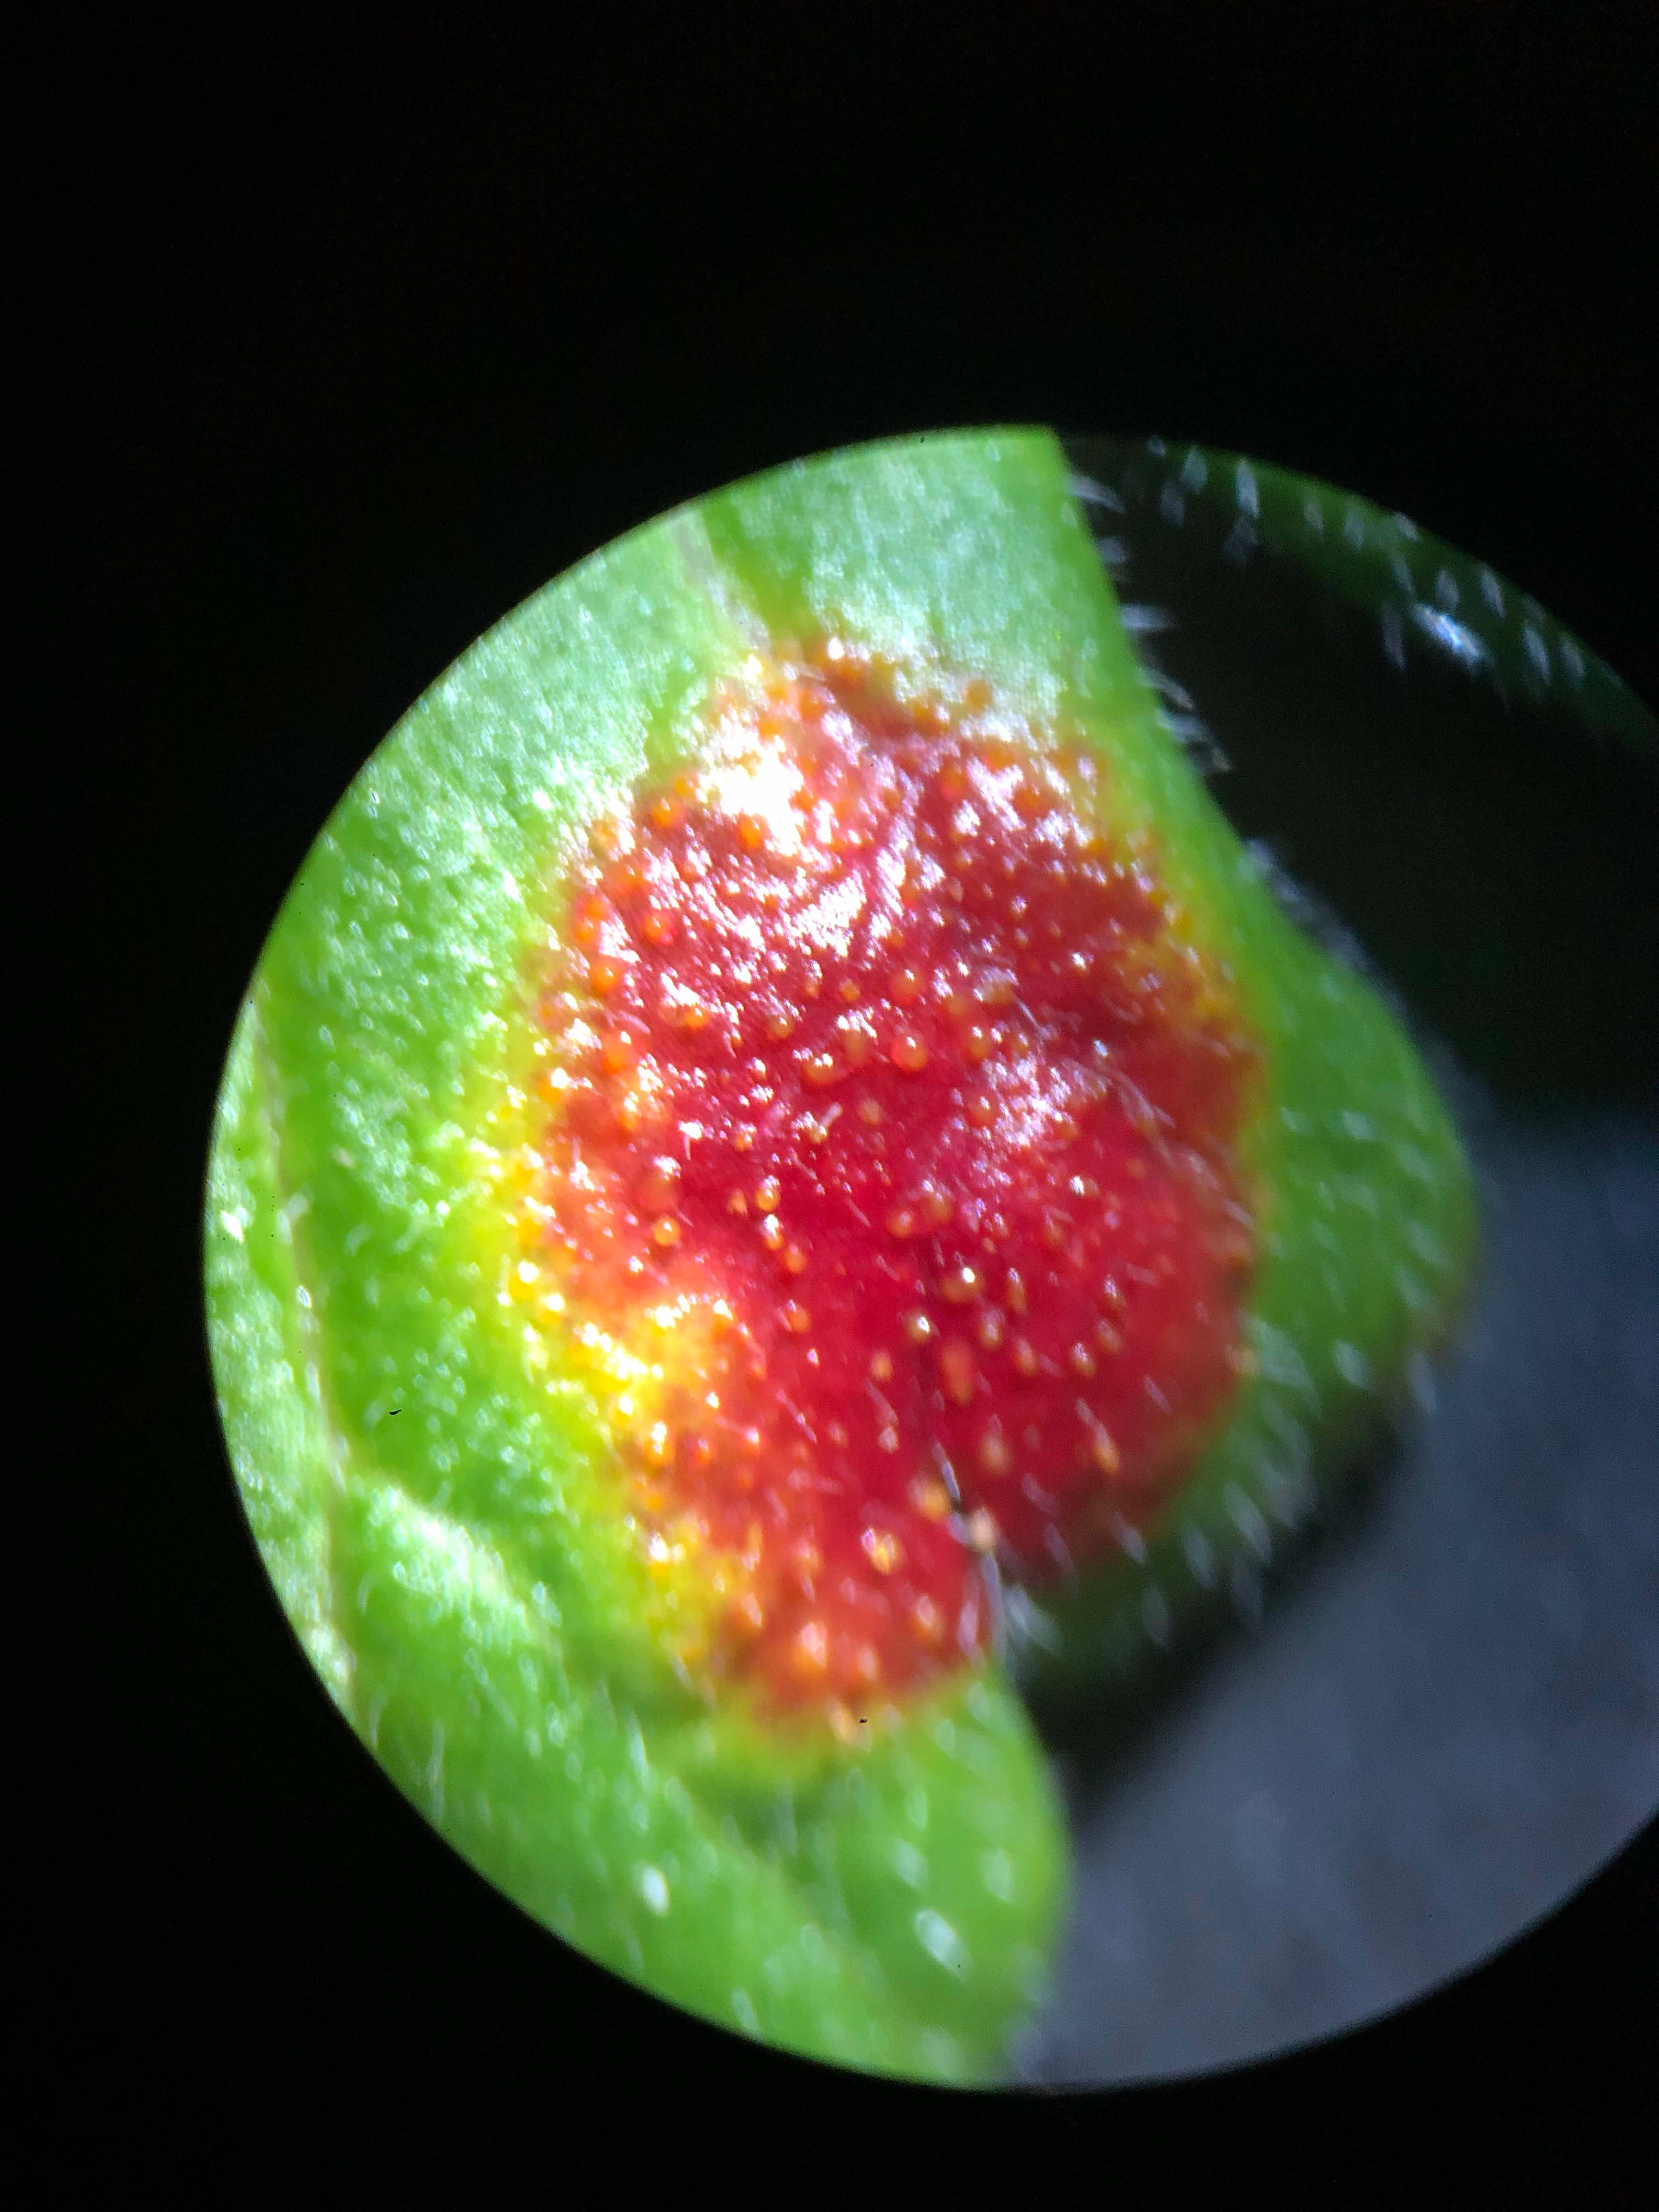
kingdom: Fungi
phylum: Basidiomycota
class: Pucciniomycetes
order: Pucciniales
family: Pucciniaceae
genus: Puccinia
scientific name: Puccinia caricina
